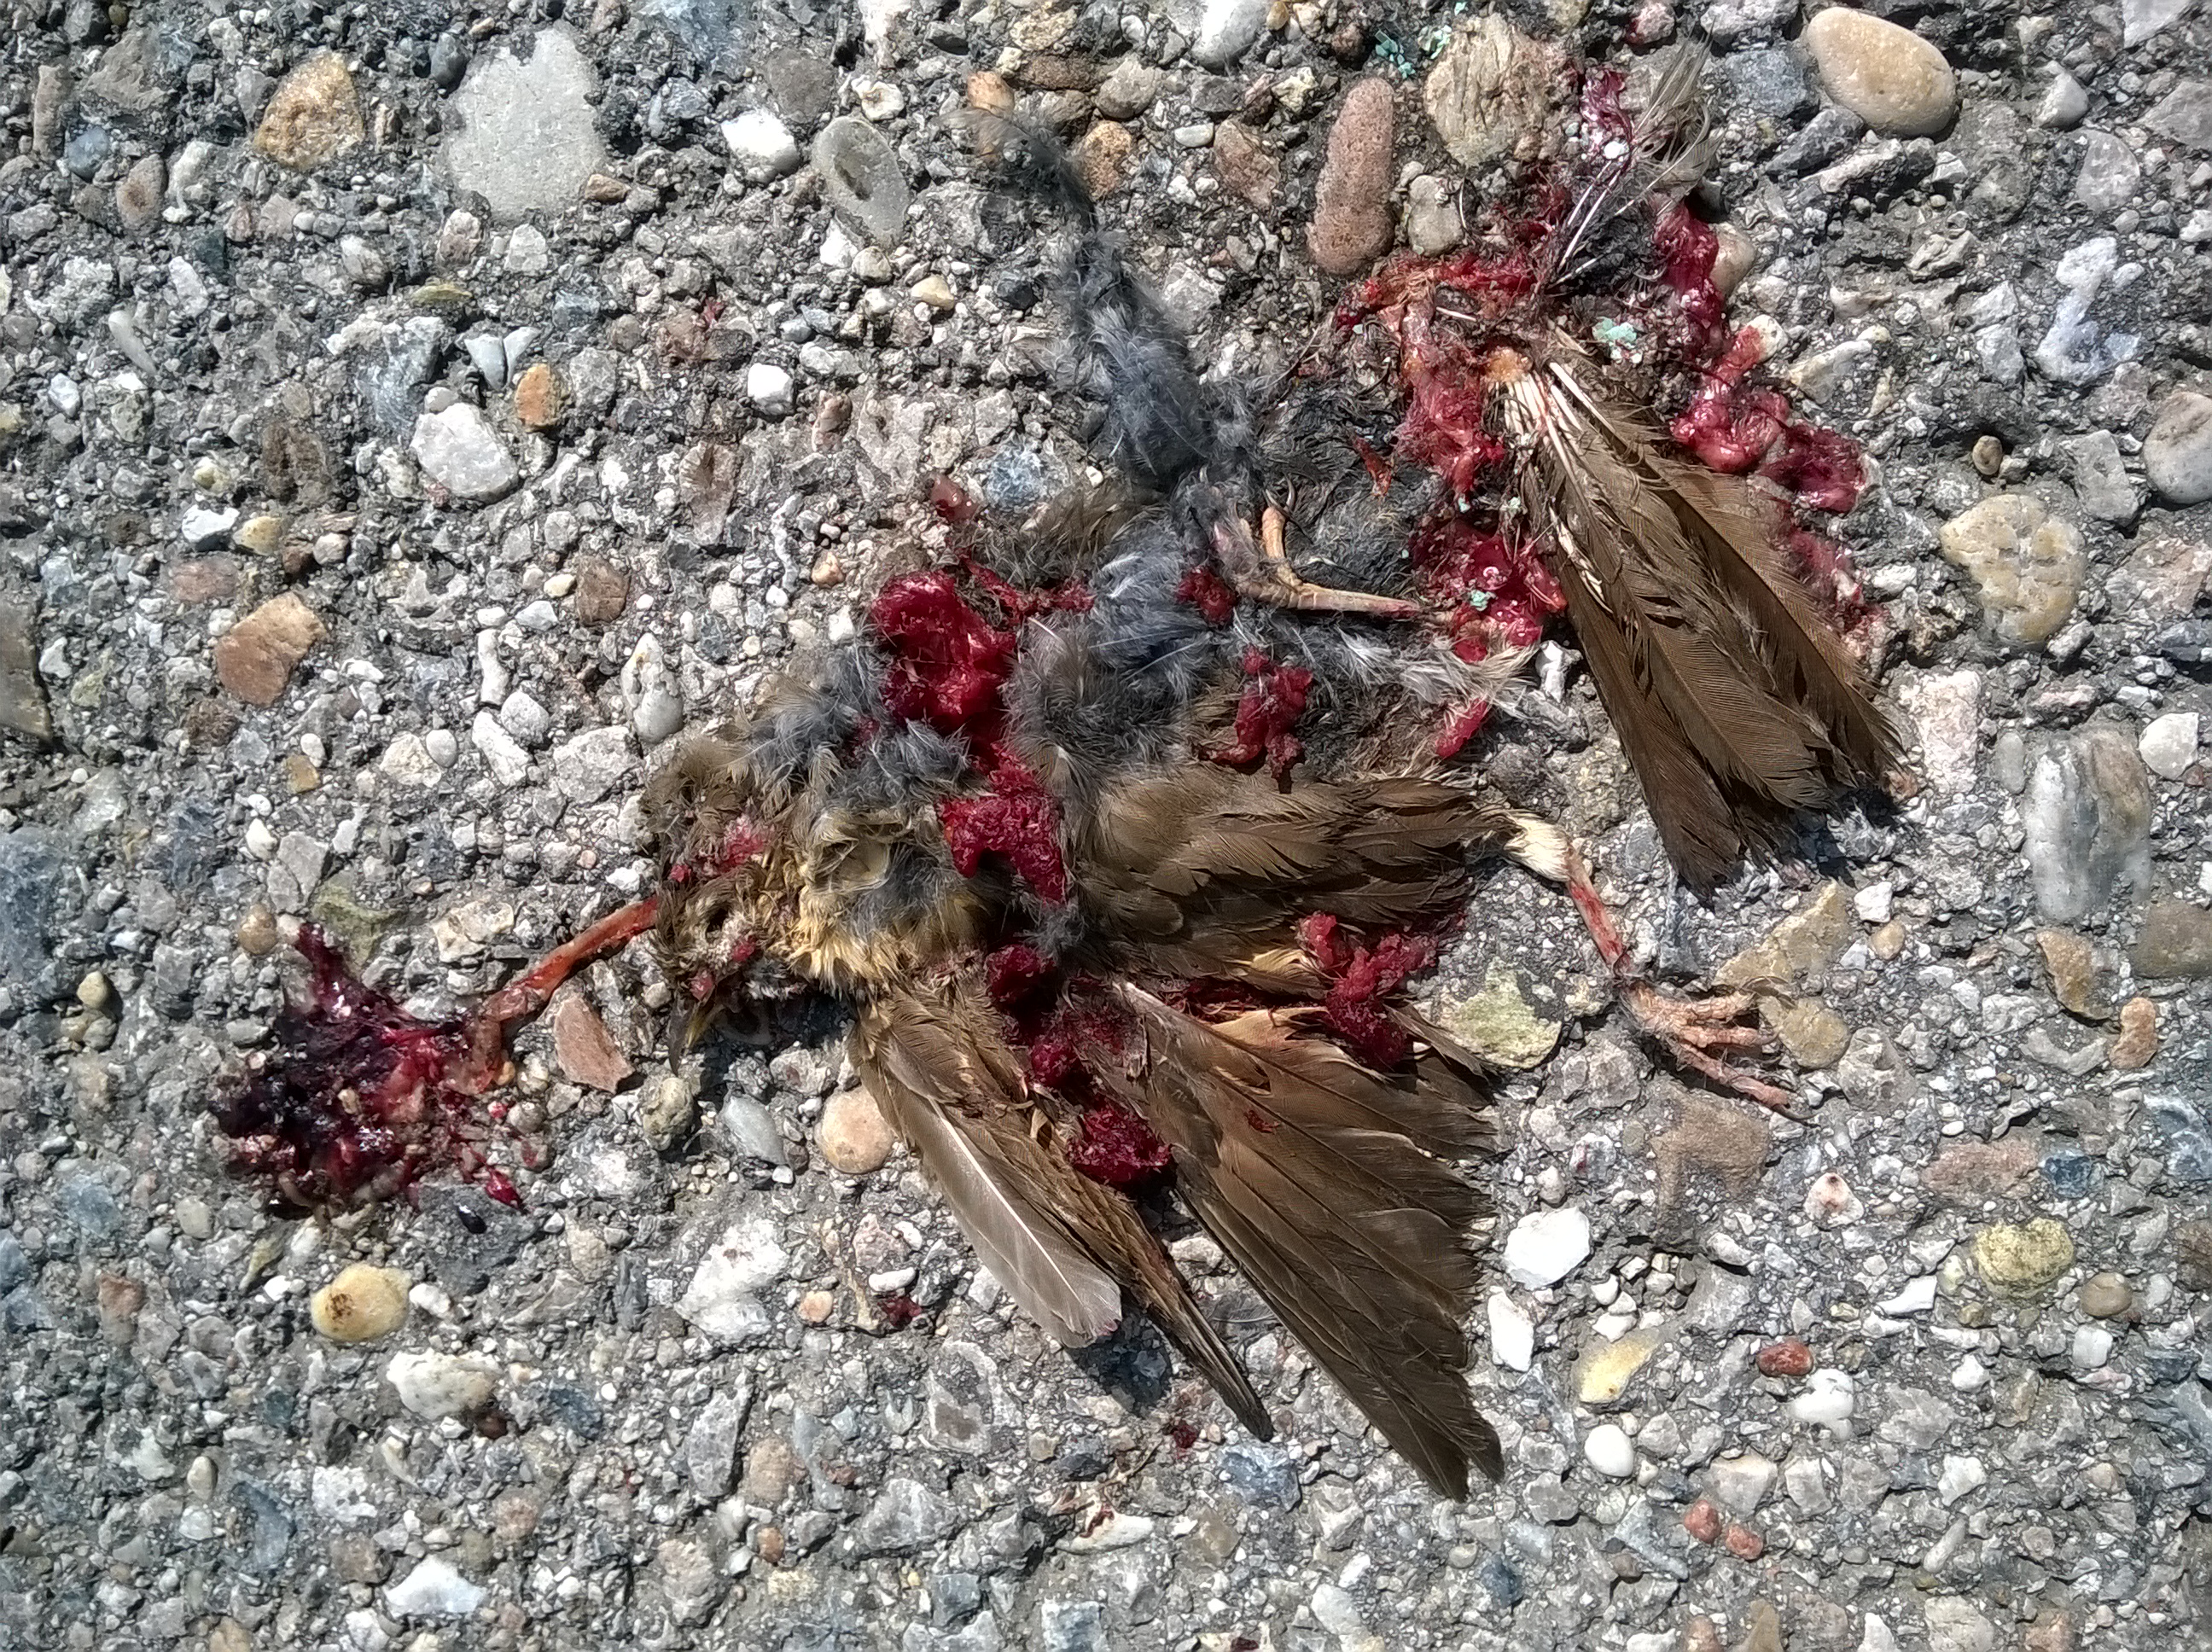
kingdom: Animalia
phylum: Chordata
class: Aves
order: Passeriformes
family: Turdidae
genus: Turdus
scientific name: Turdus merula
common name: Common blackbird
